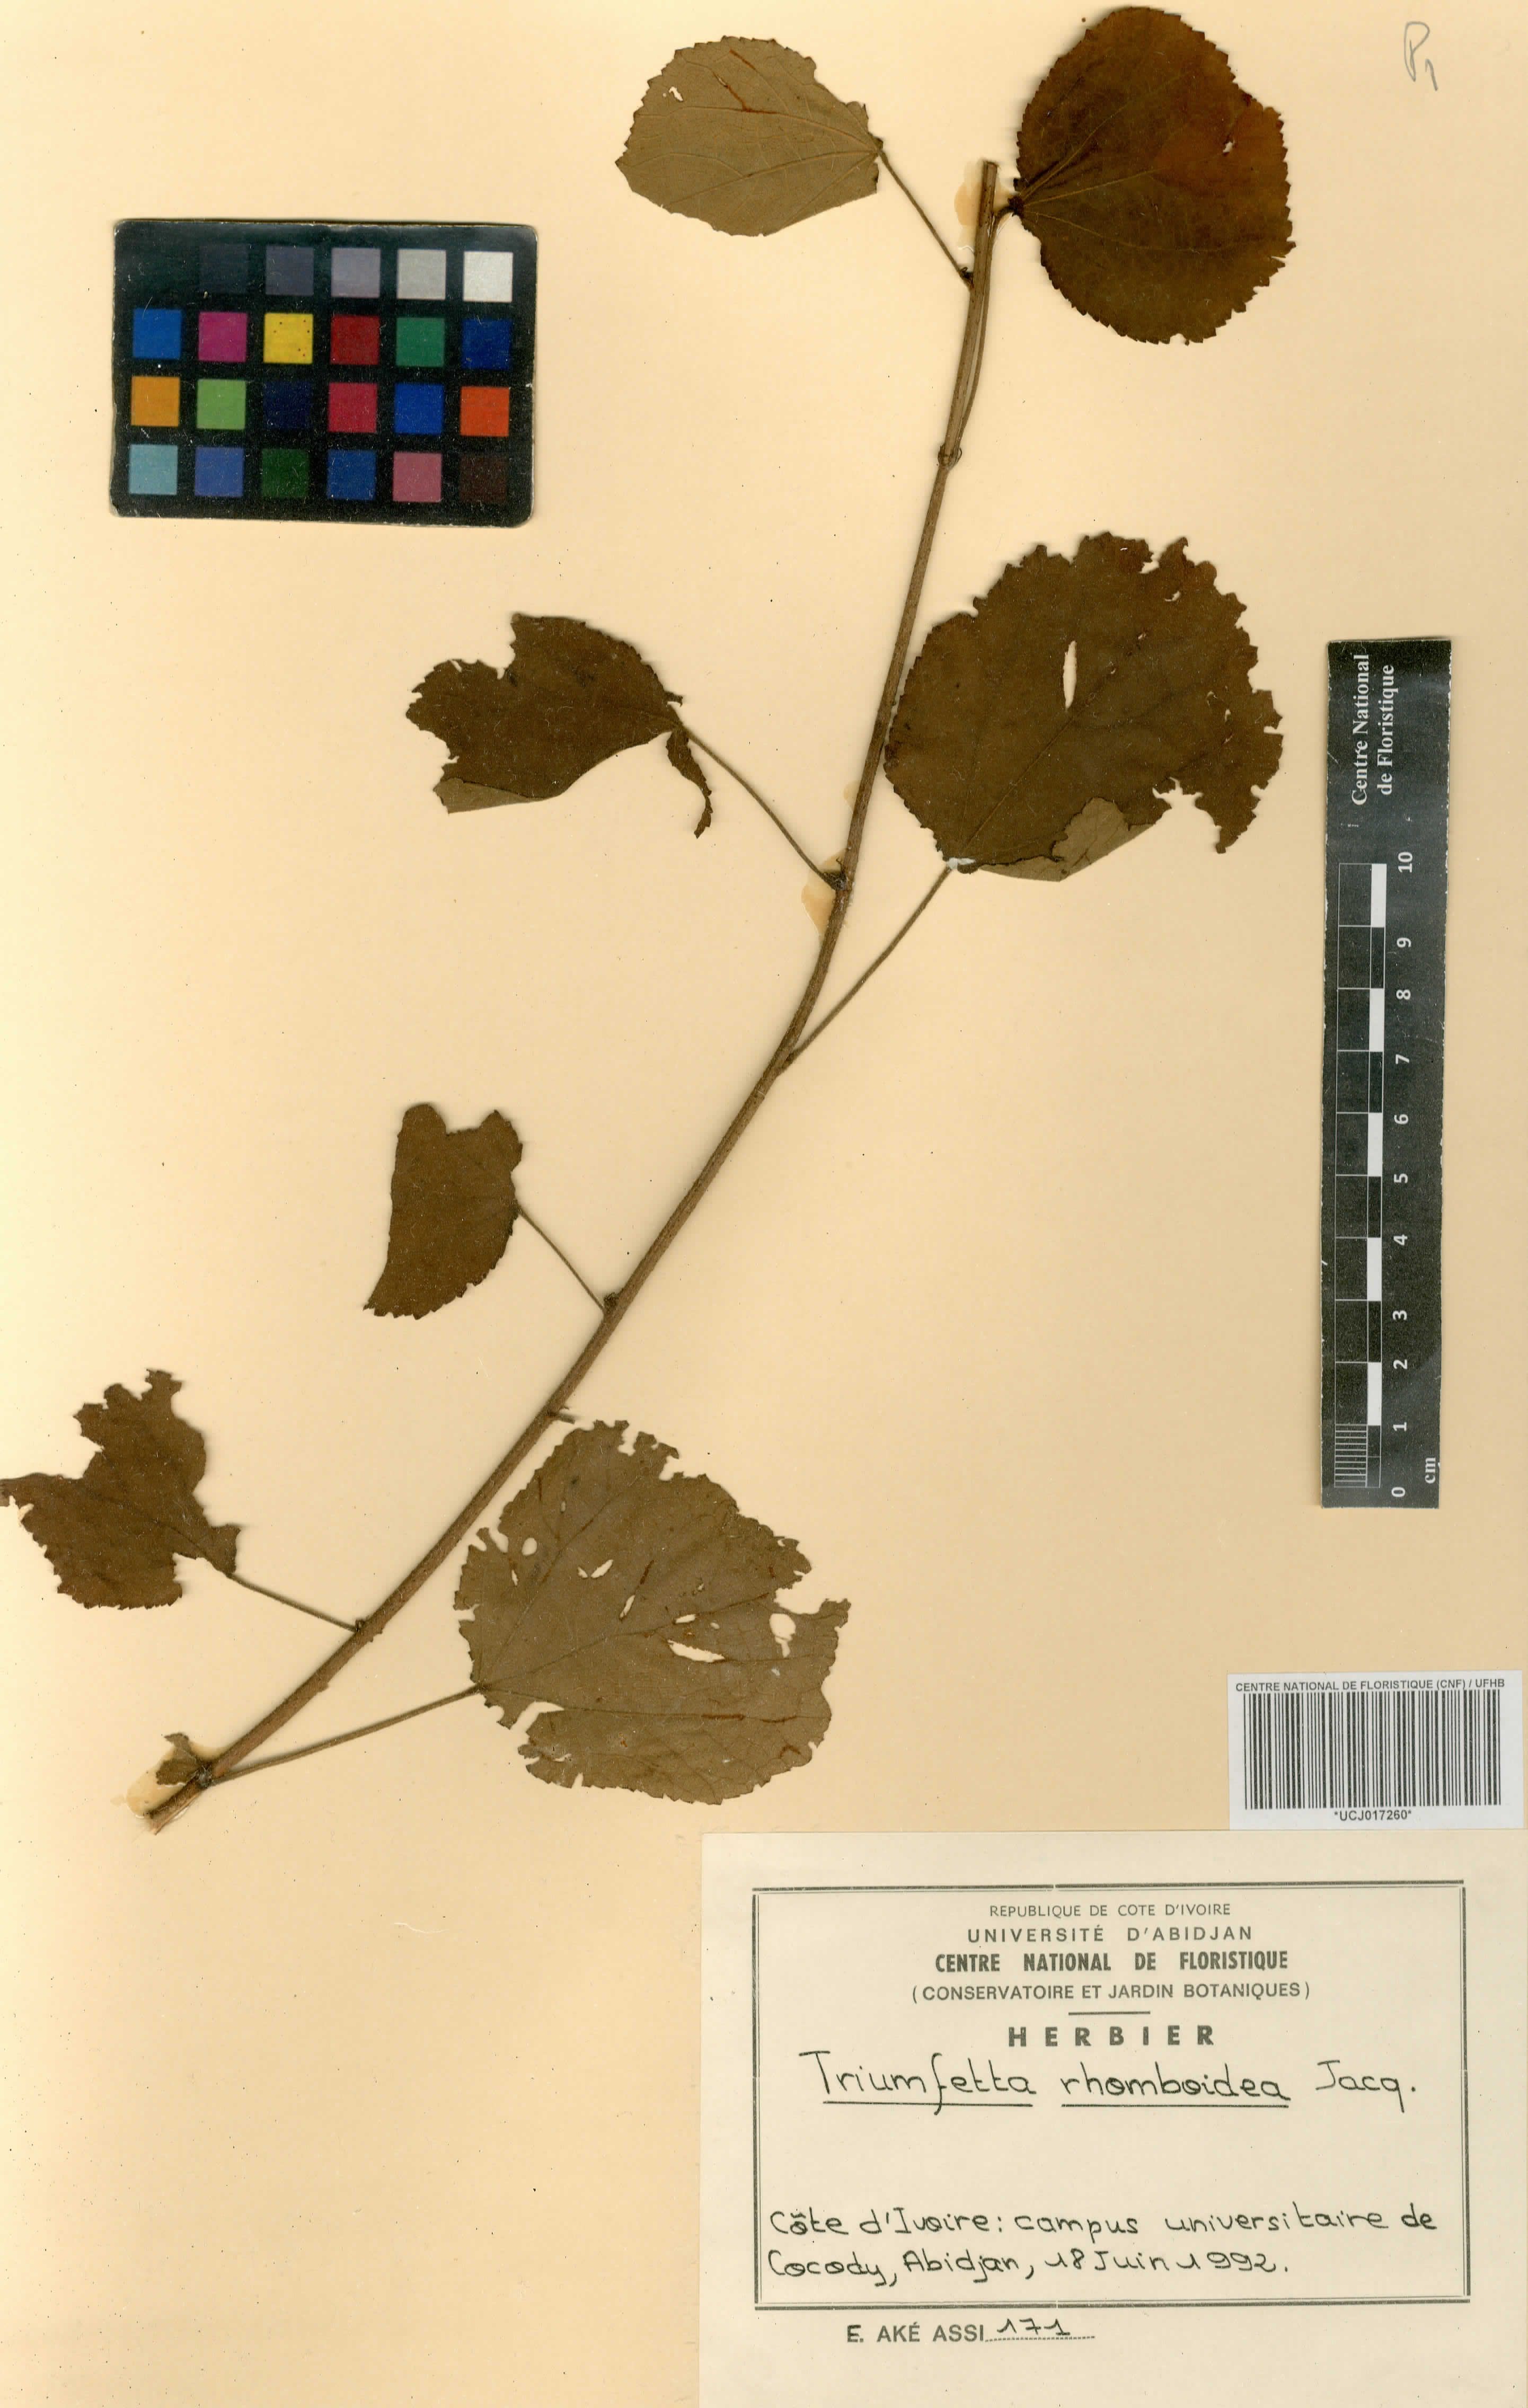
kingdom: Plantae
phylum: Tracheophyta
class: Magnoliopsida
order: Malvales
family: Malvaceae
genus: Triumfetta
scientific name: Triumfetta rhomboidea
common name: Diamond burbark
